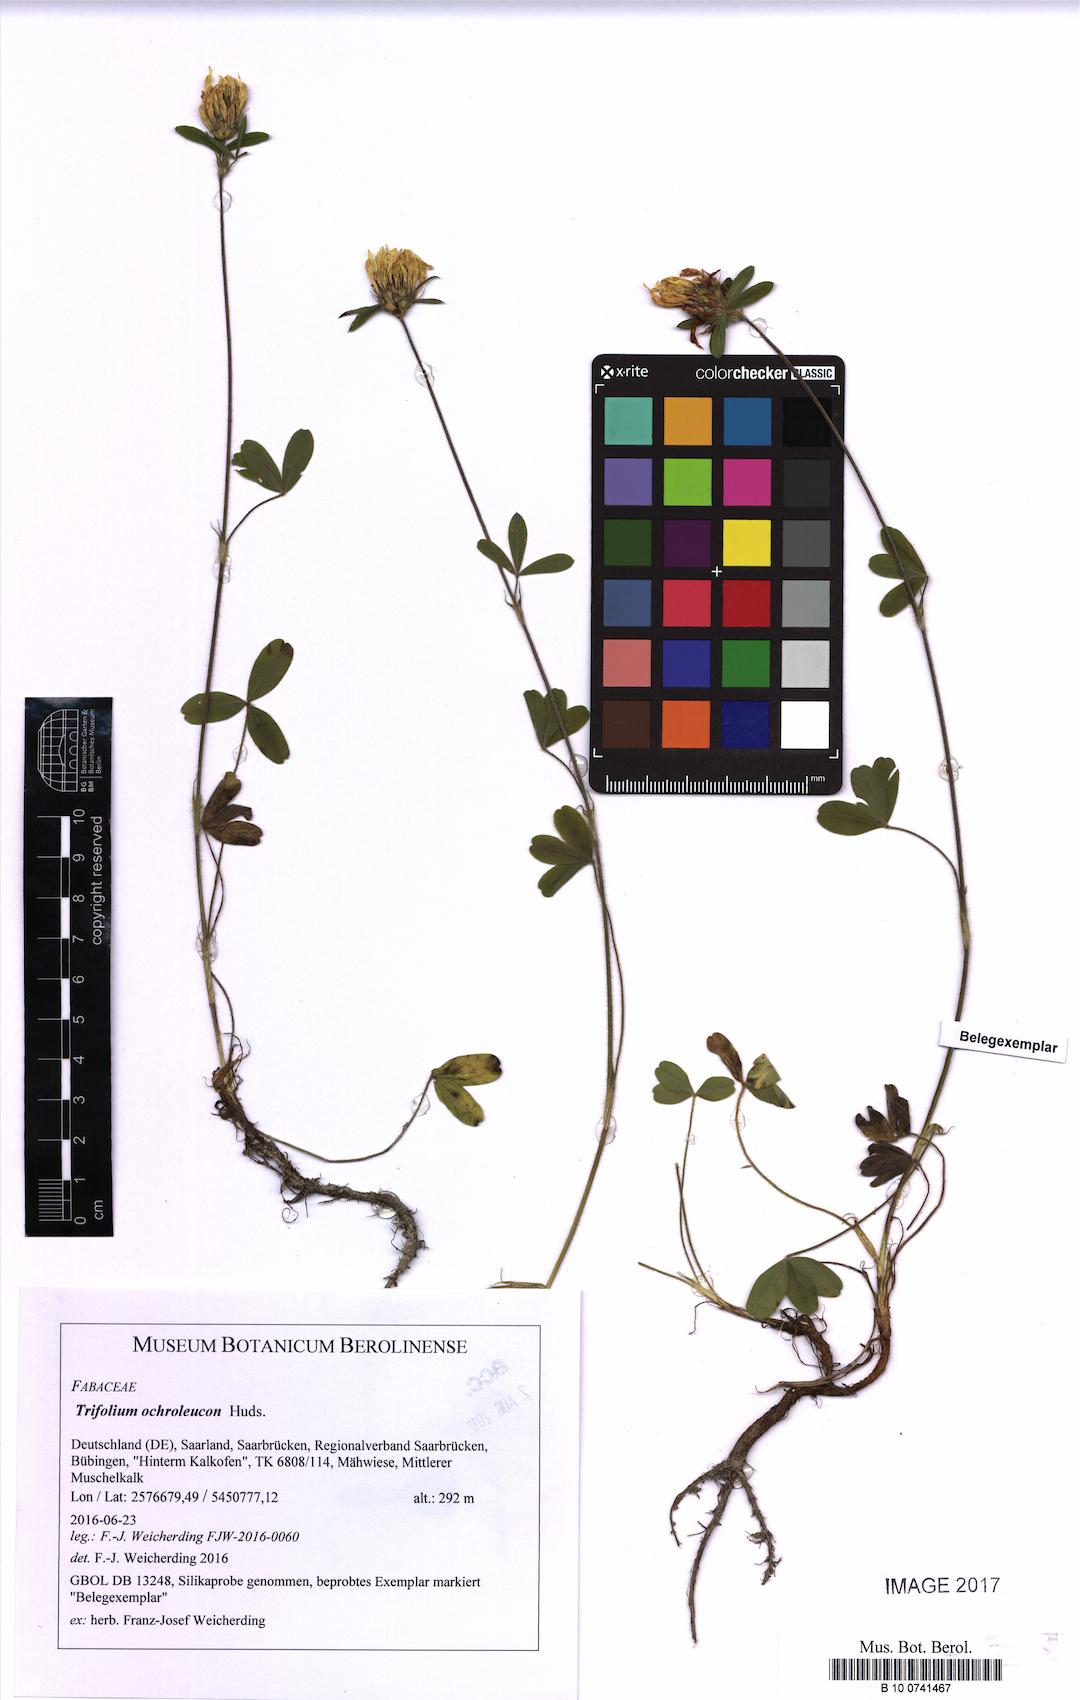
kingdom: Plantae
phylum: Tracheophyta
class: Magnoliopsida
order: Fabales
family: Fabaceae
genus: Trifolium
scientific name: Trifolium ochroleucon
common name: Sulphur clover
